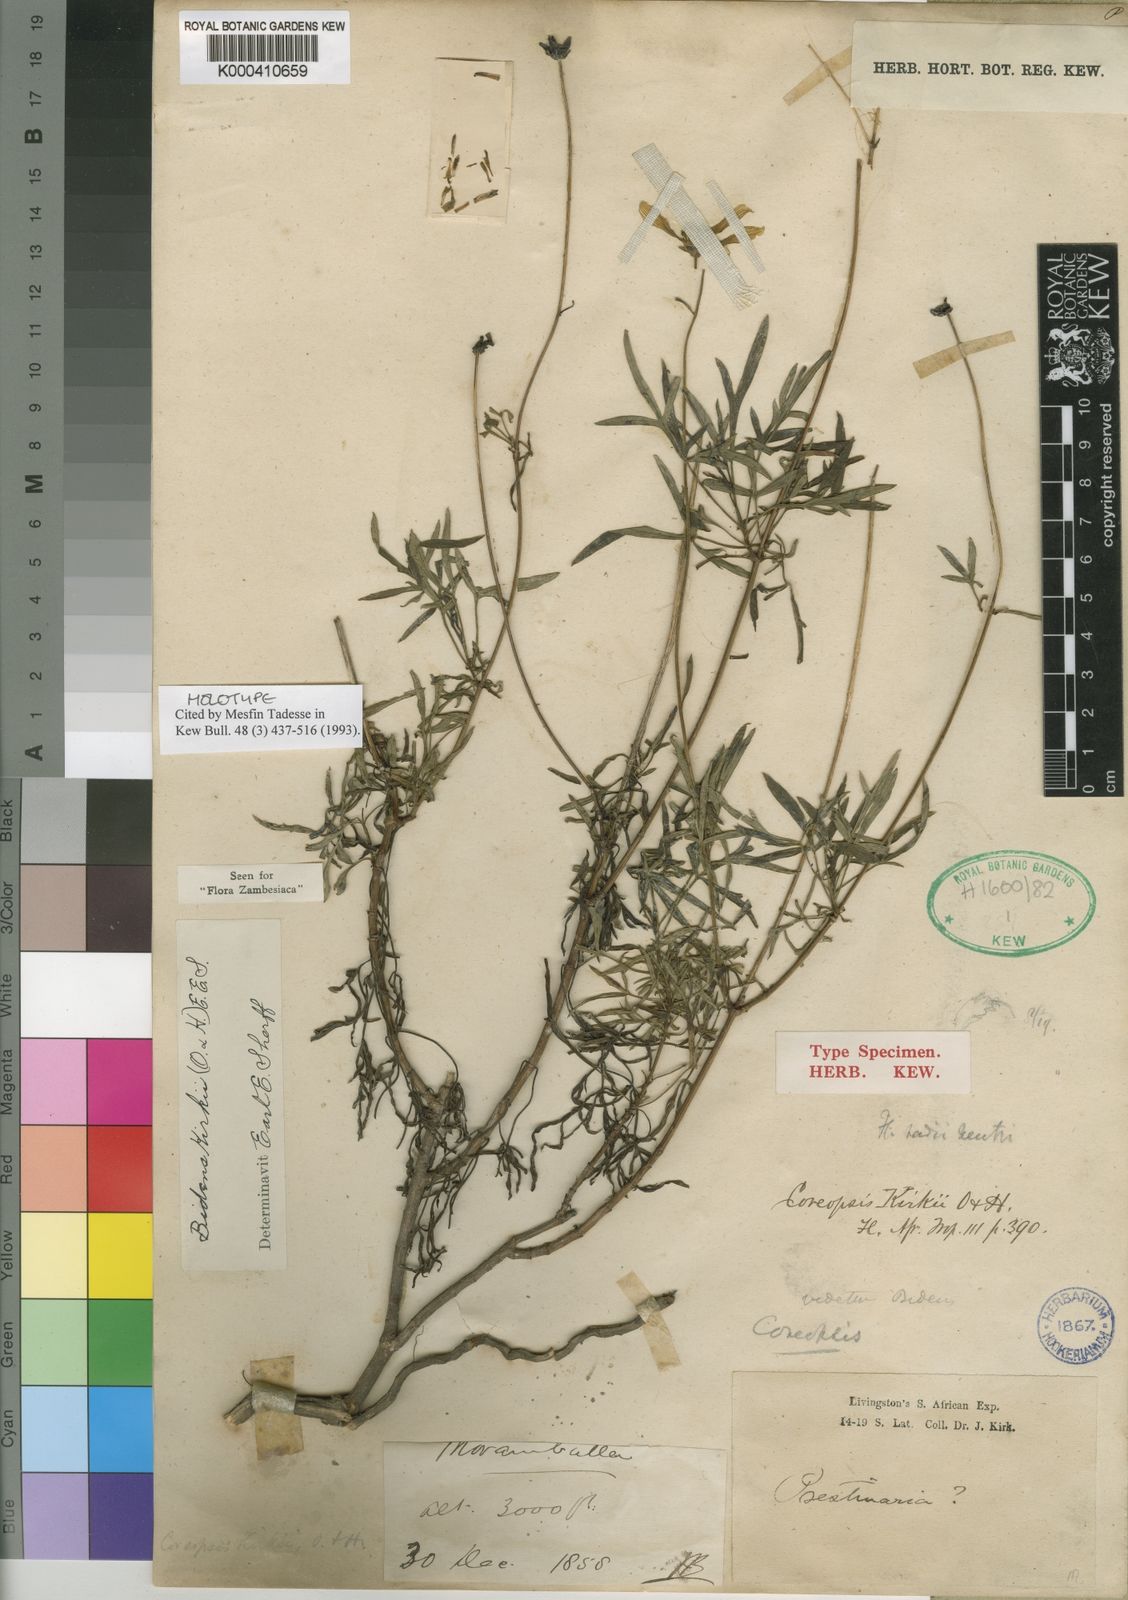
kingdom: Plantae
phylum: Tracheophyta
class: Magnoliopsida
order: Asterales
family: Asteraceae
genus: Bidens
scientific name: Bidens kirkii
